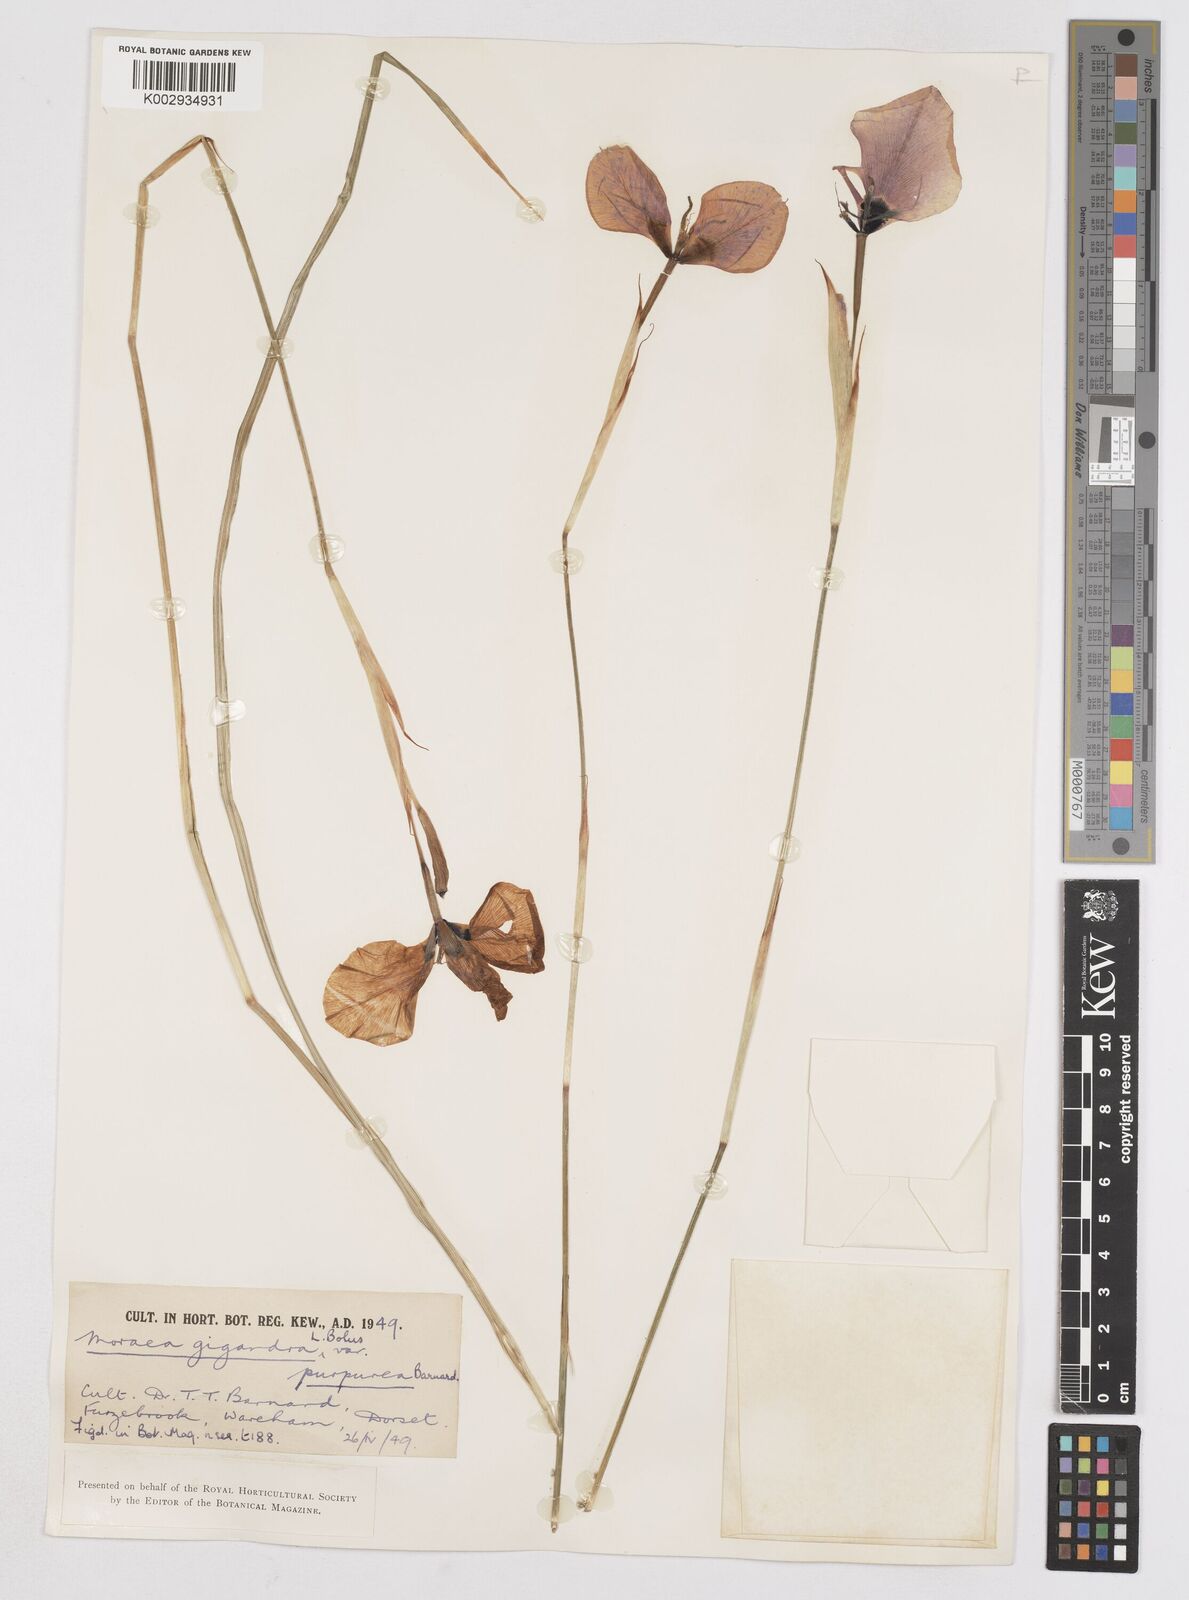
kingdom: Plantae
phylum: Tracheophyta
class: Liliopsida
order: Asparagales
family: Iridaceae
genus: Moraea
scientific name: Moraea gigandra
